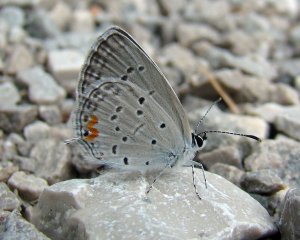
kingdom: Animalia
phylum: Arthropoda
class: Insecta
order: Lepidoptera
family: Lycaenidae
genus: Elkalyce
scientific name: Elkalyce comyntas
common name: Eastern Tailed-Blue
